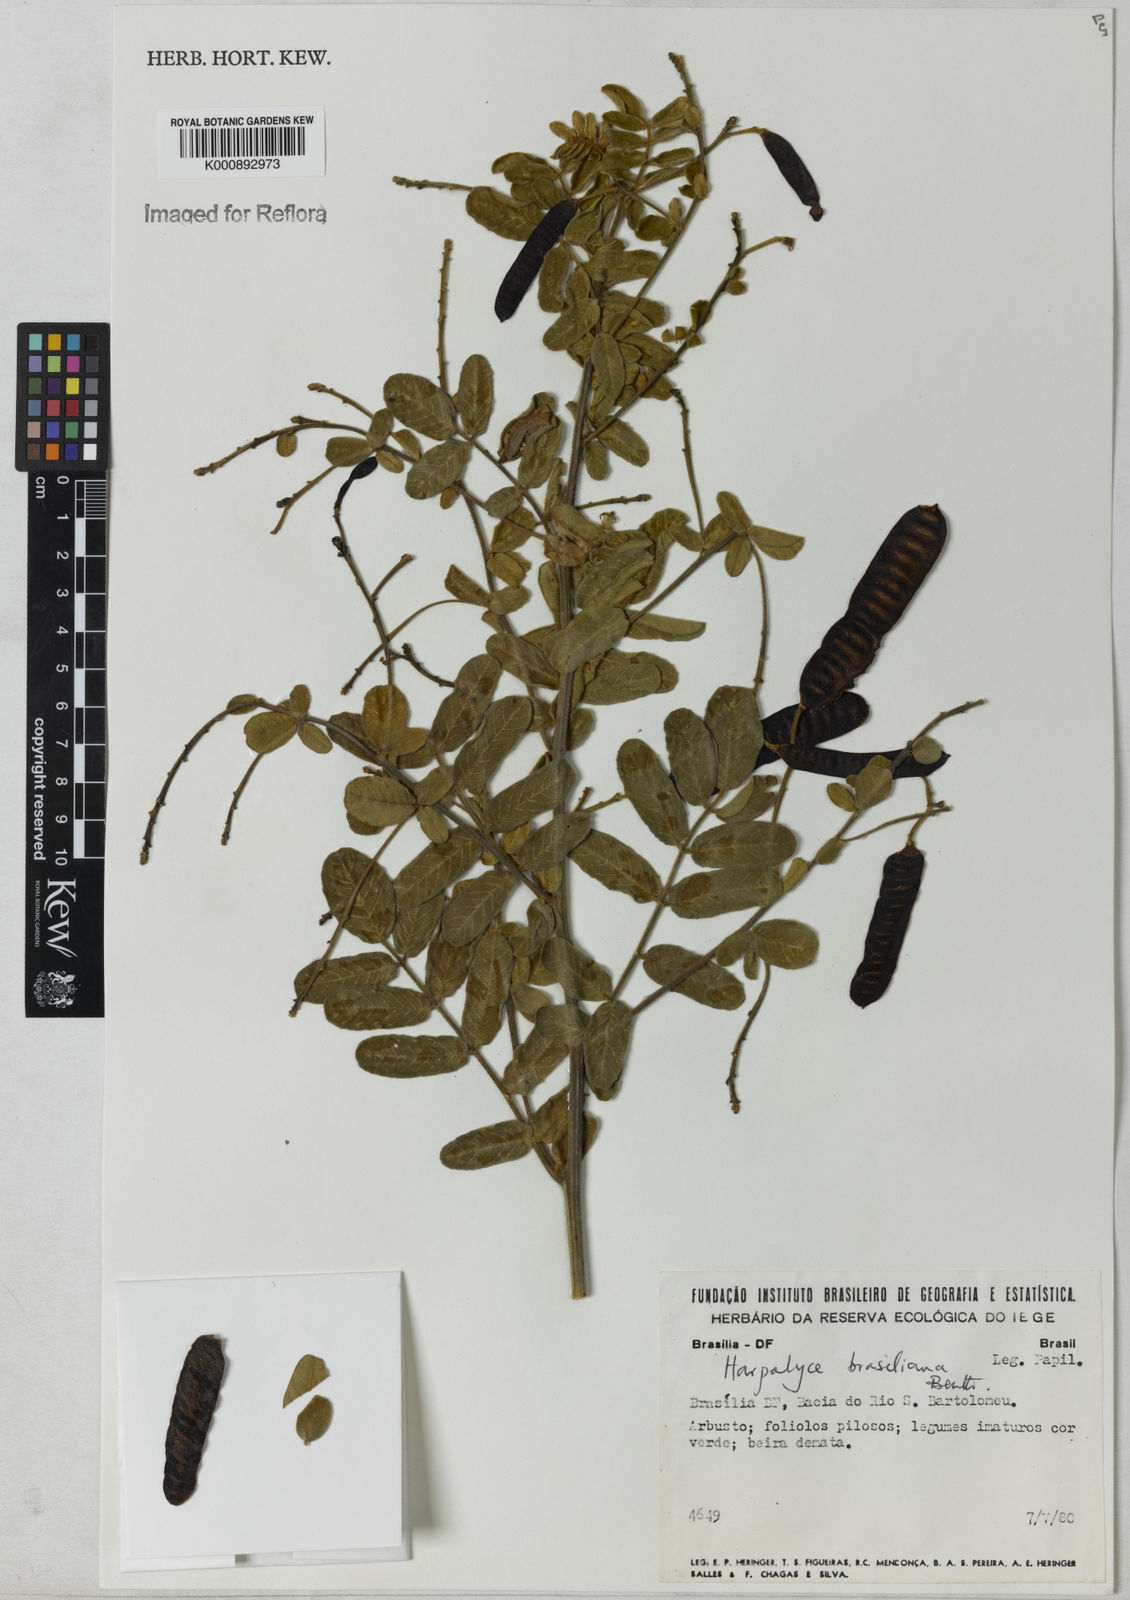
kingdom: Plantae
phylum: Tracheophyta
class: Magnoliopsida
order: Fabales
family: Fabaceae
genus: Harpalyce
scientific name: Harpalyce brasiliana
